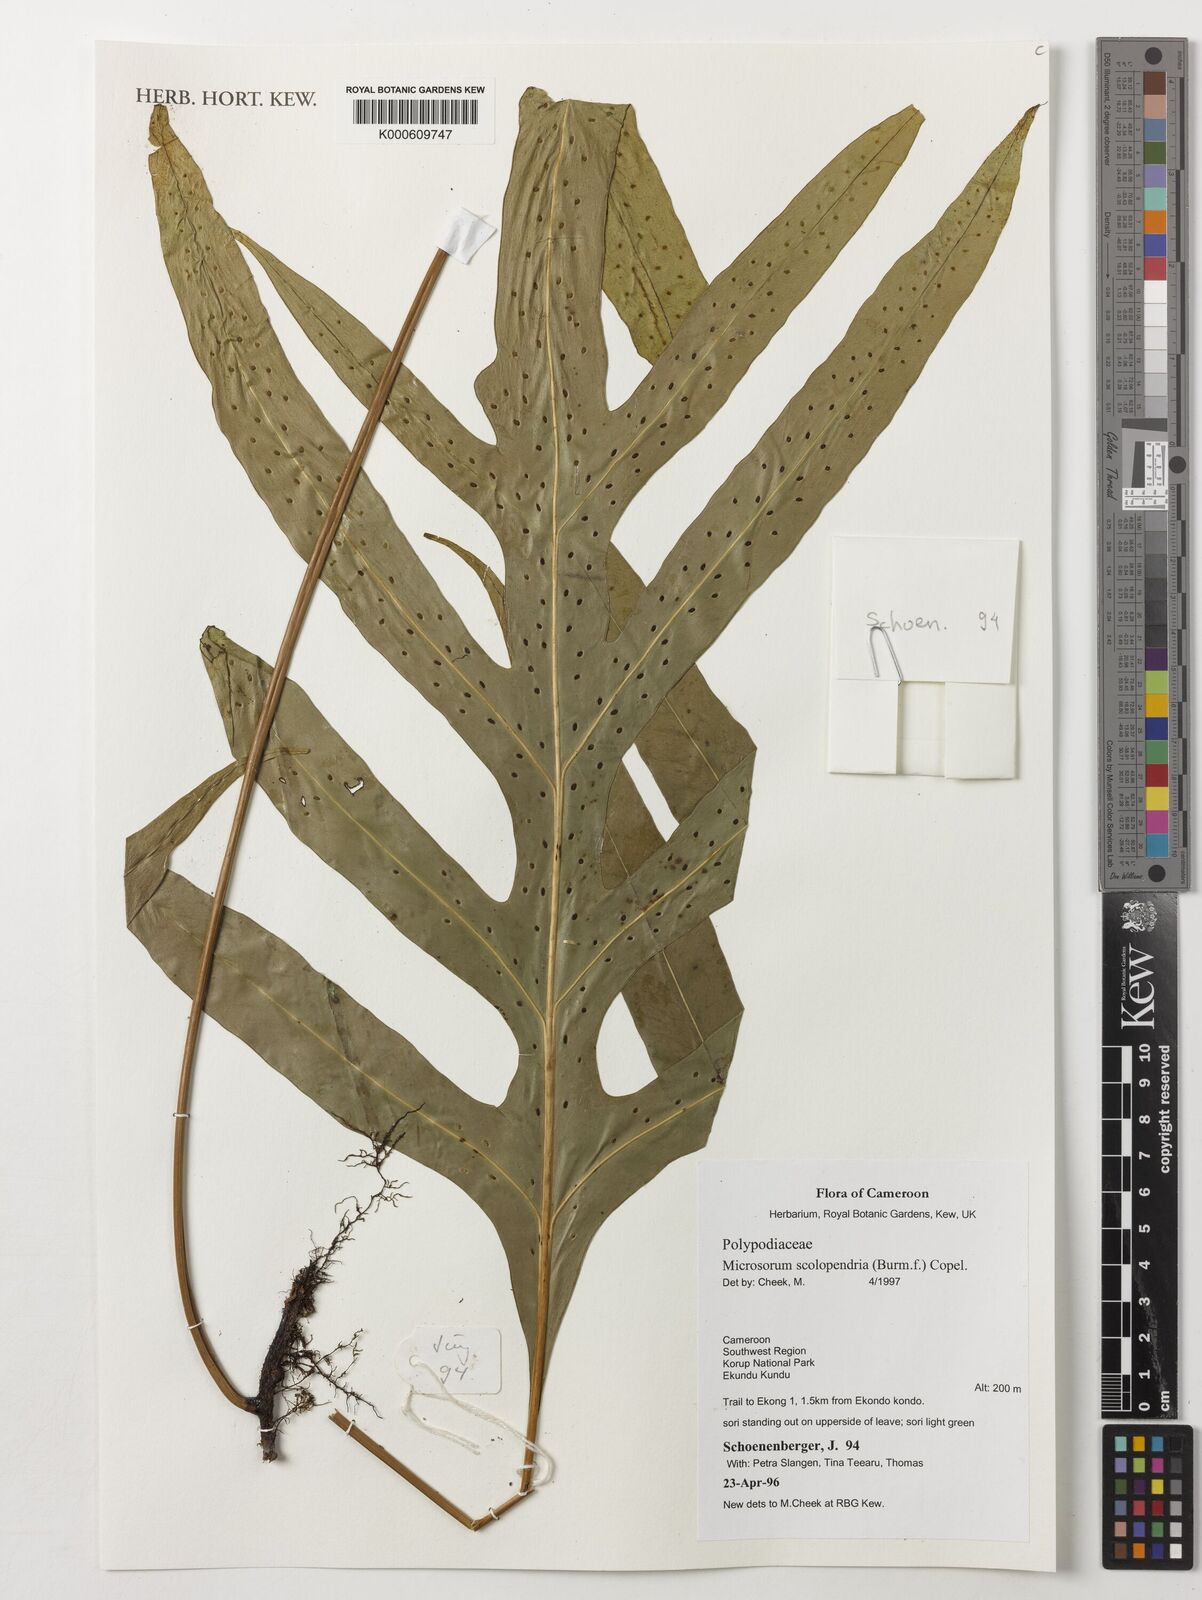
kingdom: Plantae
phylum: Tracheophyta
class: Polypodiopsida
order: Polypodiales
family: Polypodiaceae
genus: Microsorum
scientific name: Microsorum scolopendria
